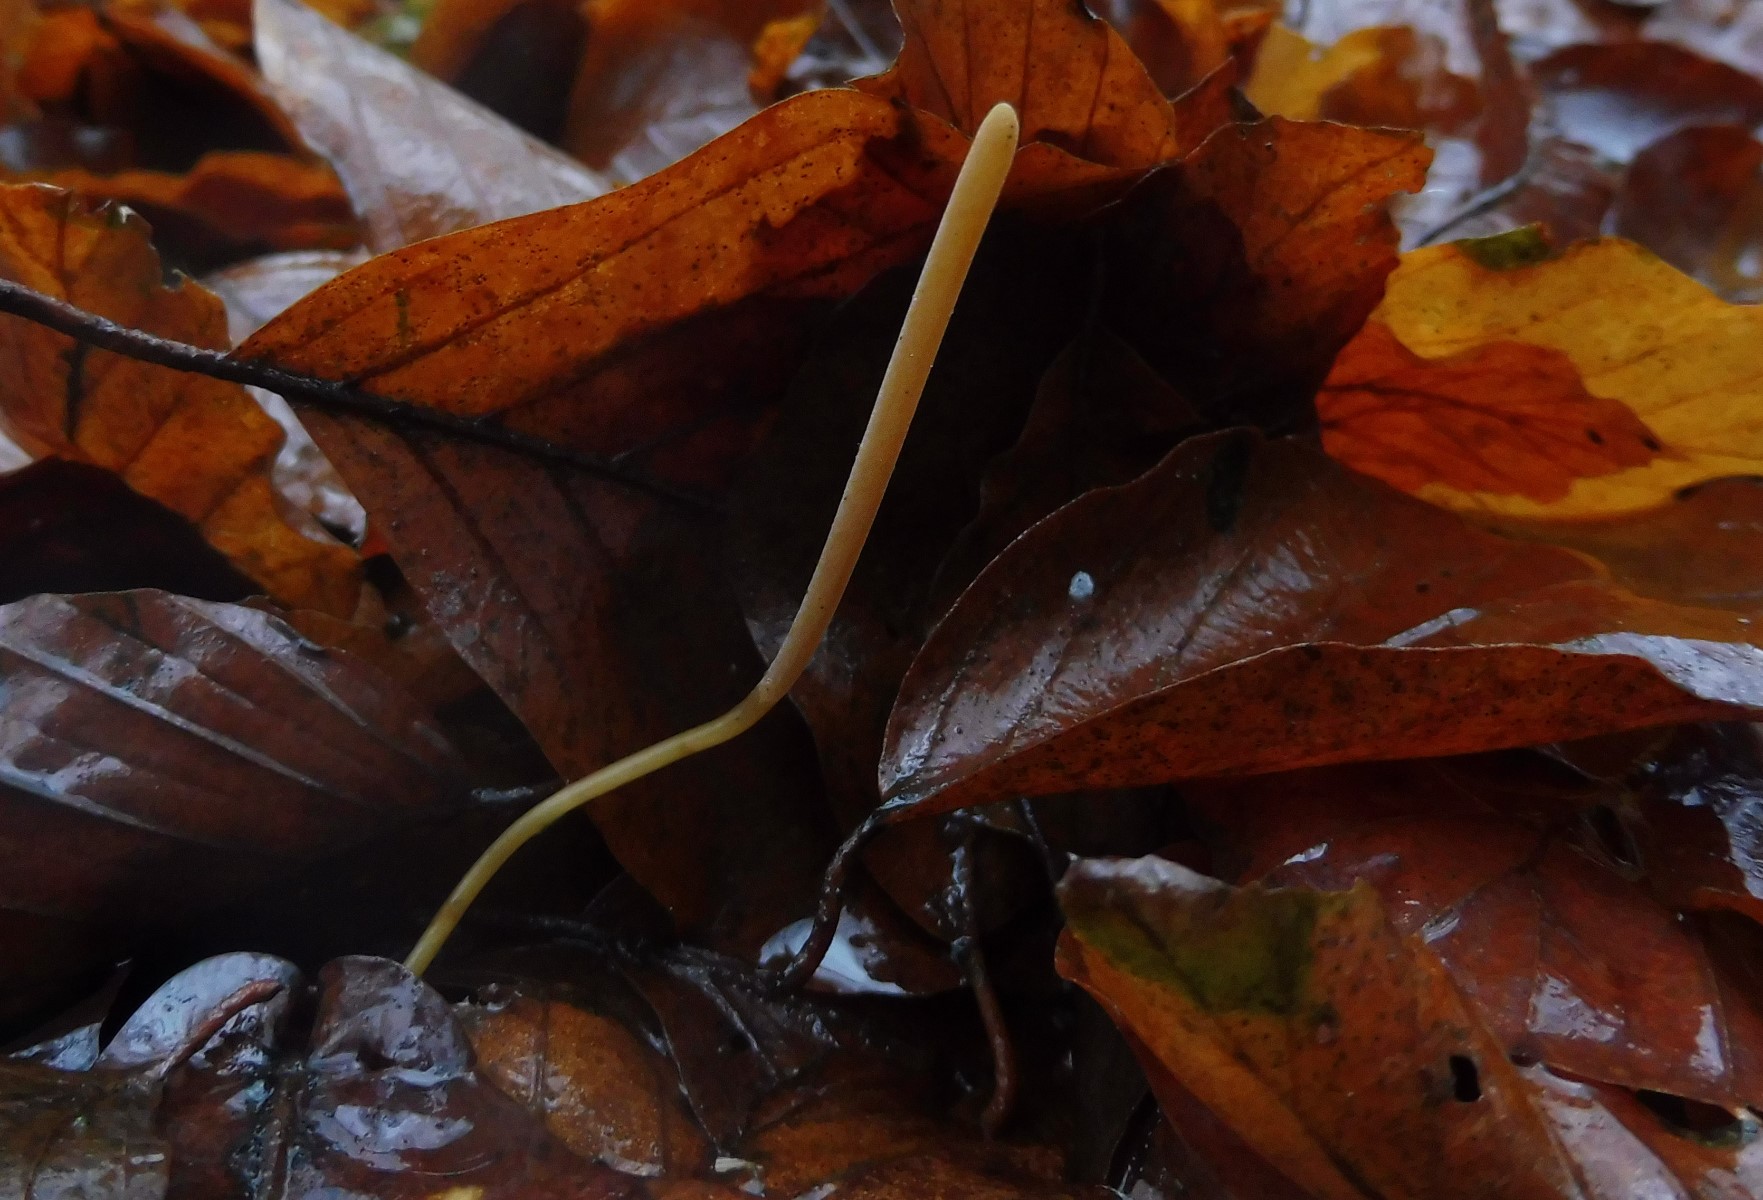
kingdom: Fungi
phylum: Basidiomycota
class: Agaricomycetes
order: Agaricales
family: Typhulaceae
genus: Typhula
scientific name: Typhula fistulosa
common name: pibet rørkølle
